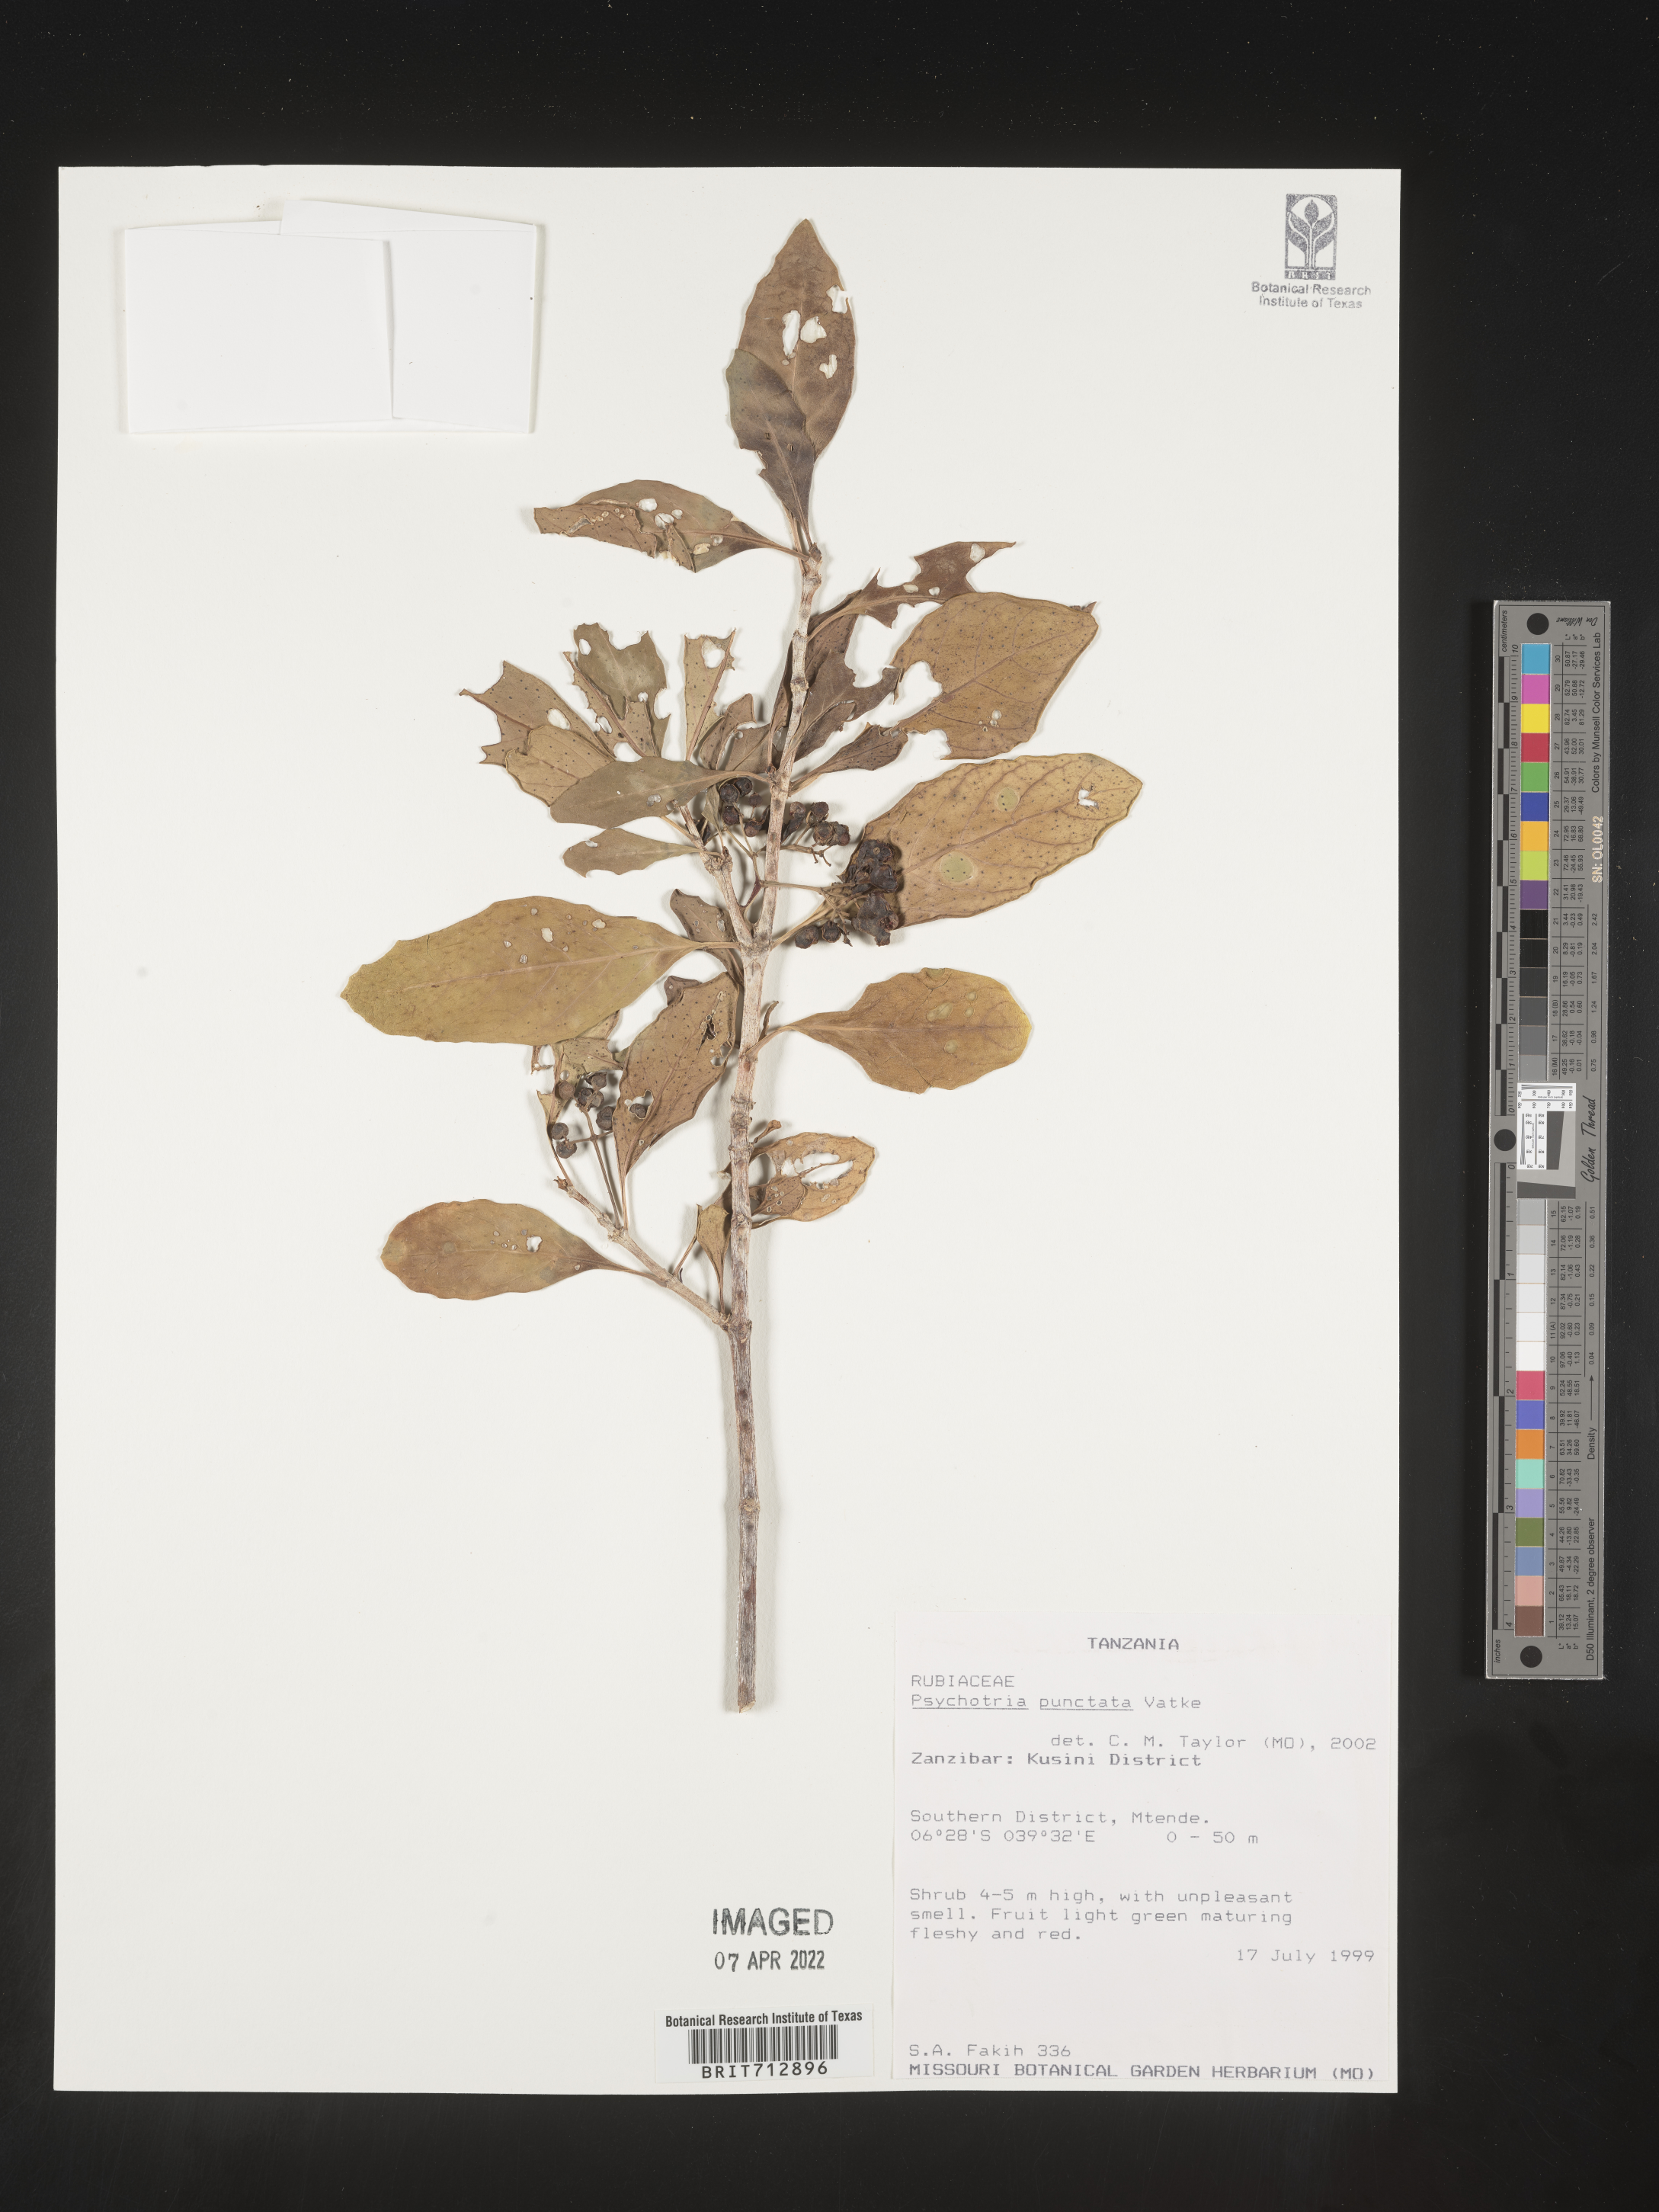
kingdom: Plantae
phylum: Tracheophyta
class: Magnoliopsida
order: Gentianales
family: Rubiaceae
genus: Psychotria
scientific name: Psychotria
